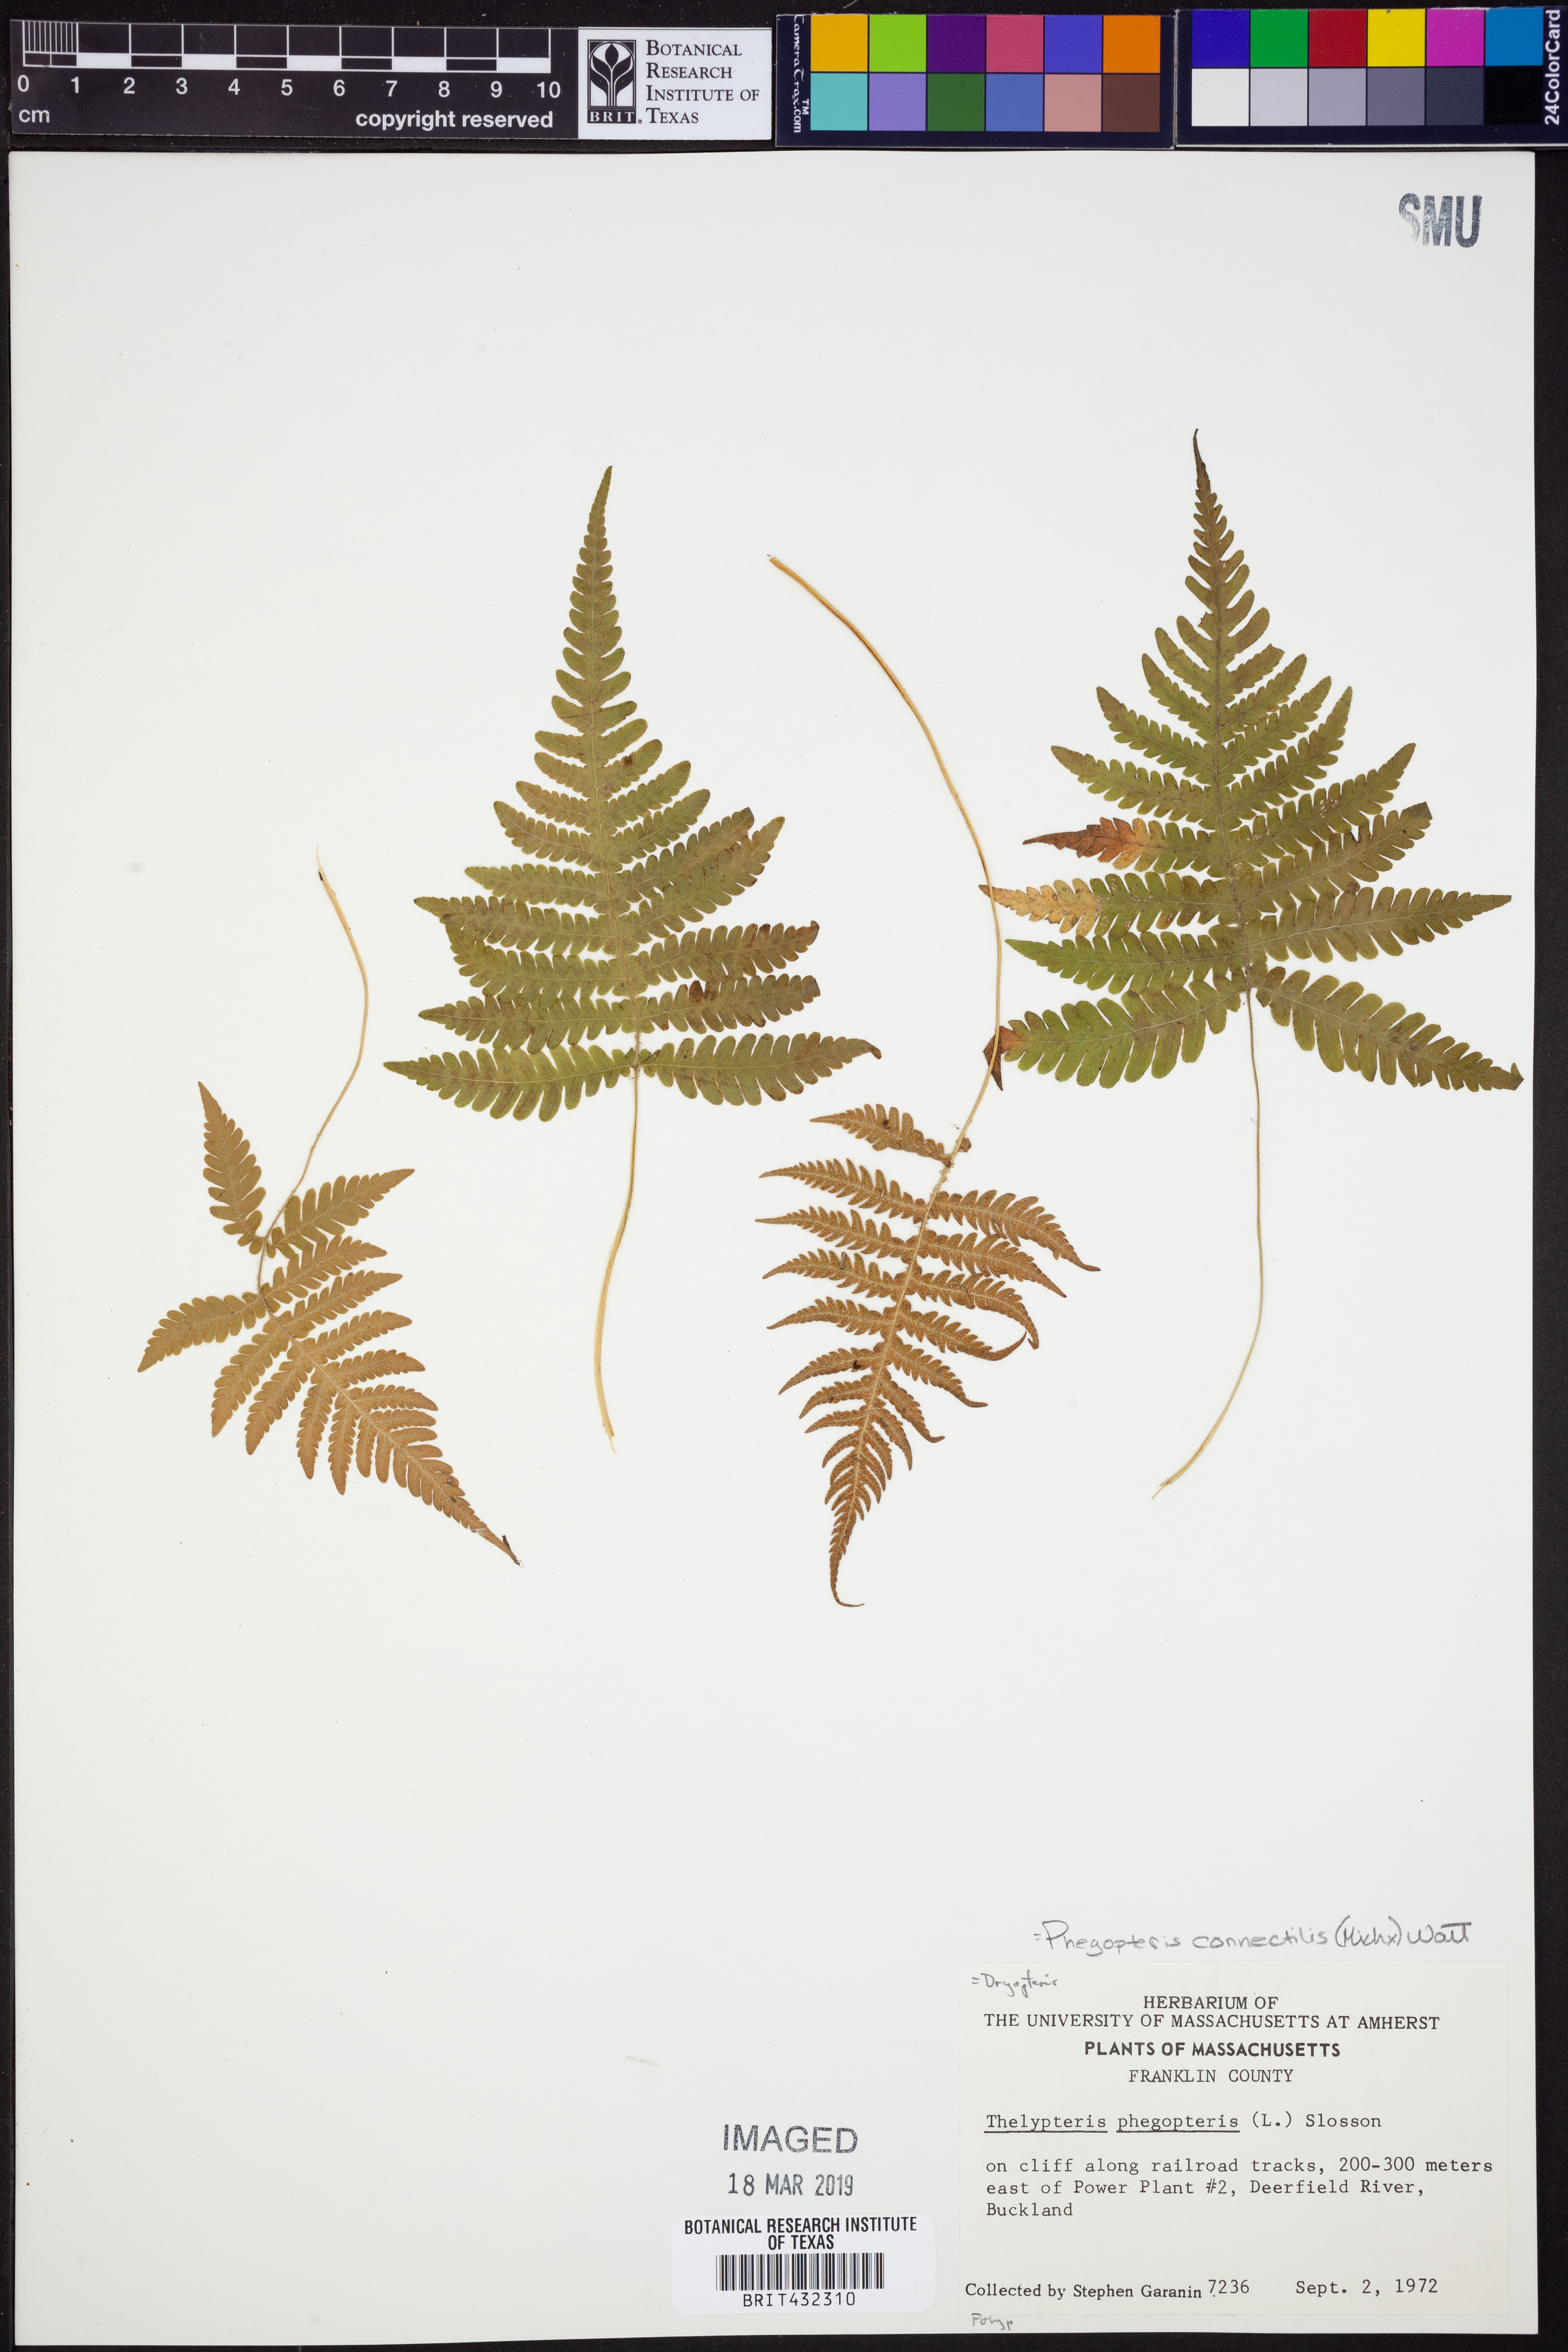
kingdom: Plantae
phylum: Tracheophyta
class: Polypodiopsida
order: Polypodiales
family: Thelypteridaceae
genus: Phegopteris
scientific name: Phegopteris connectilis
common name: Beech fern
